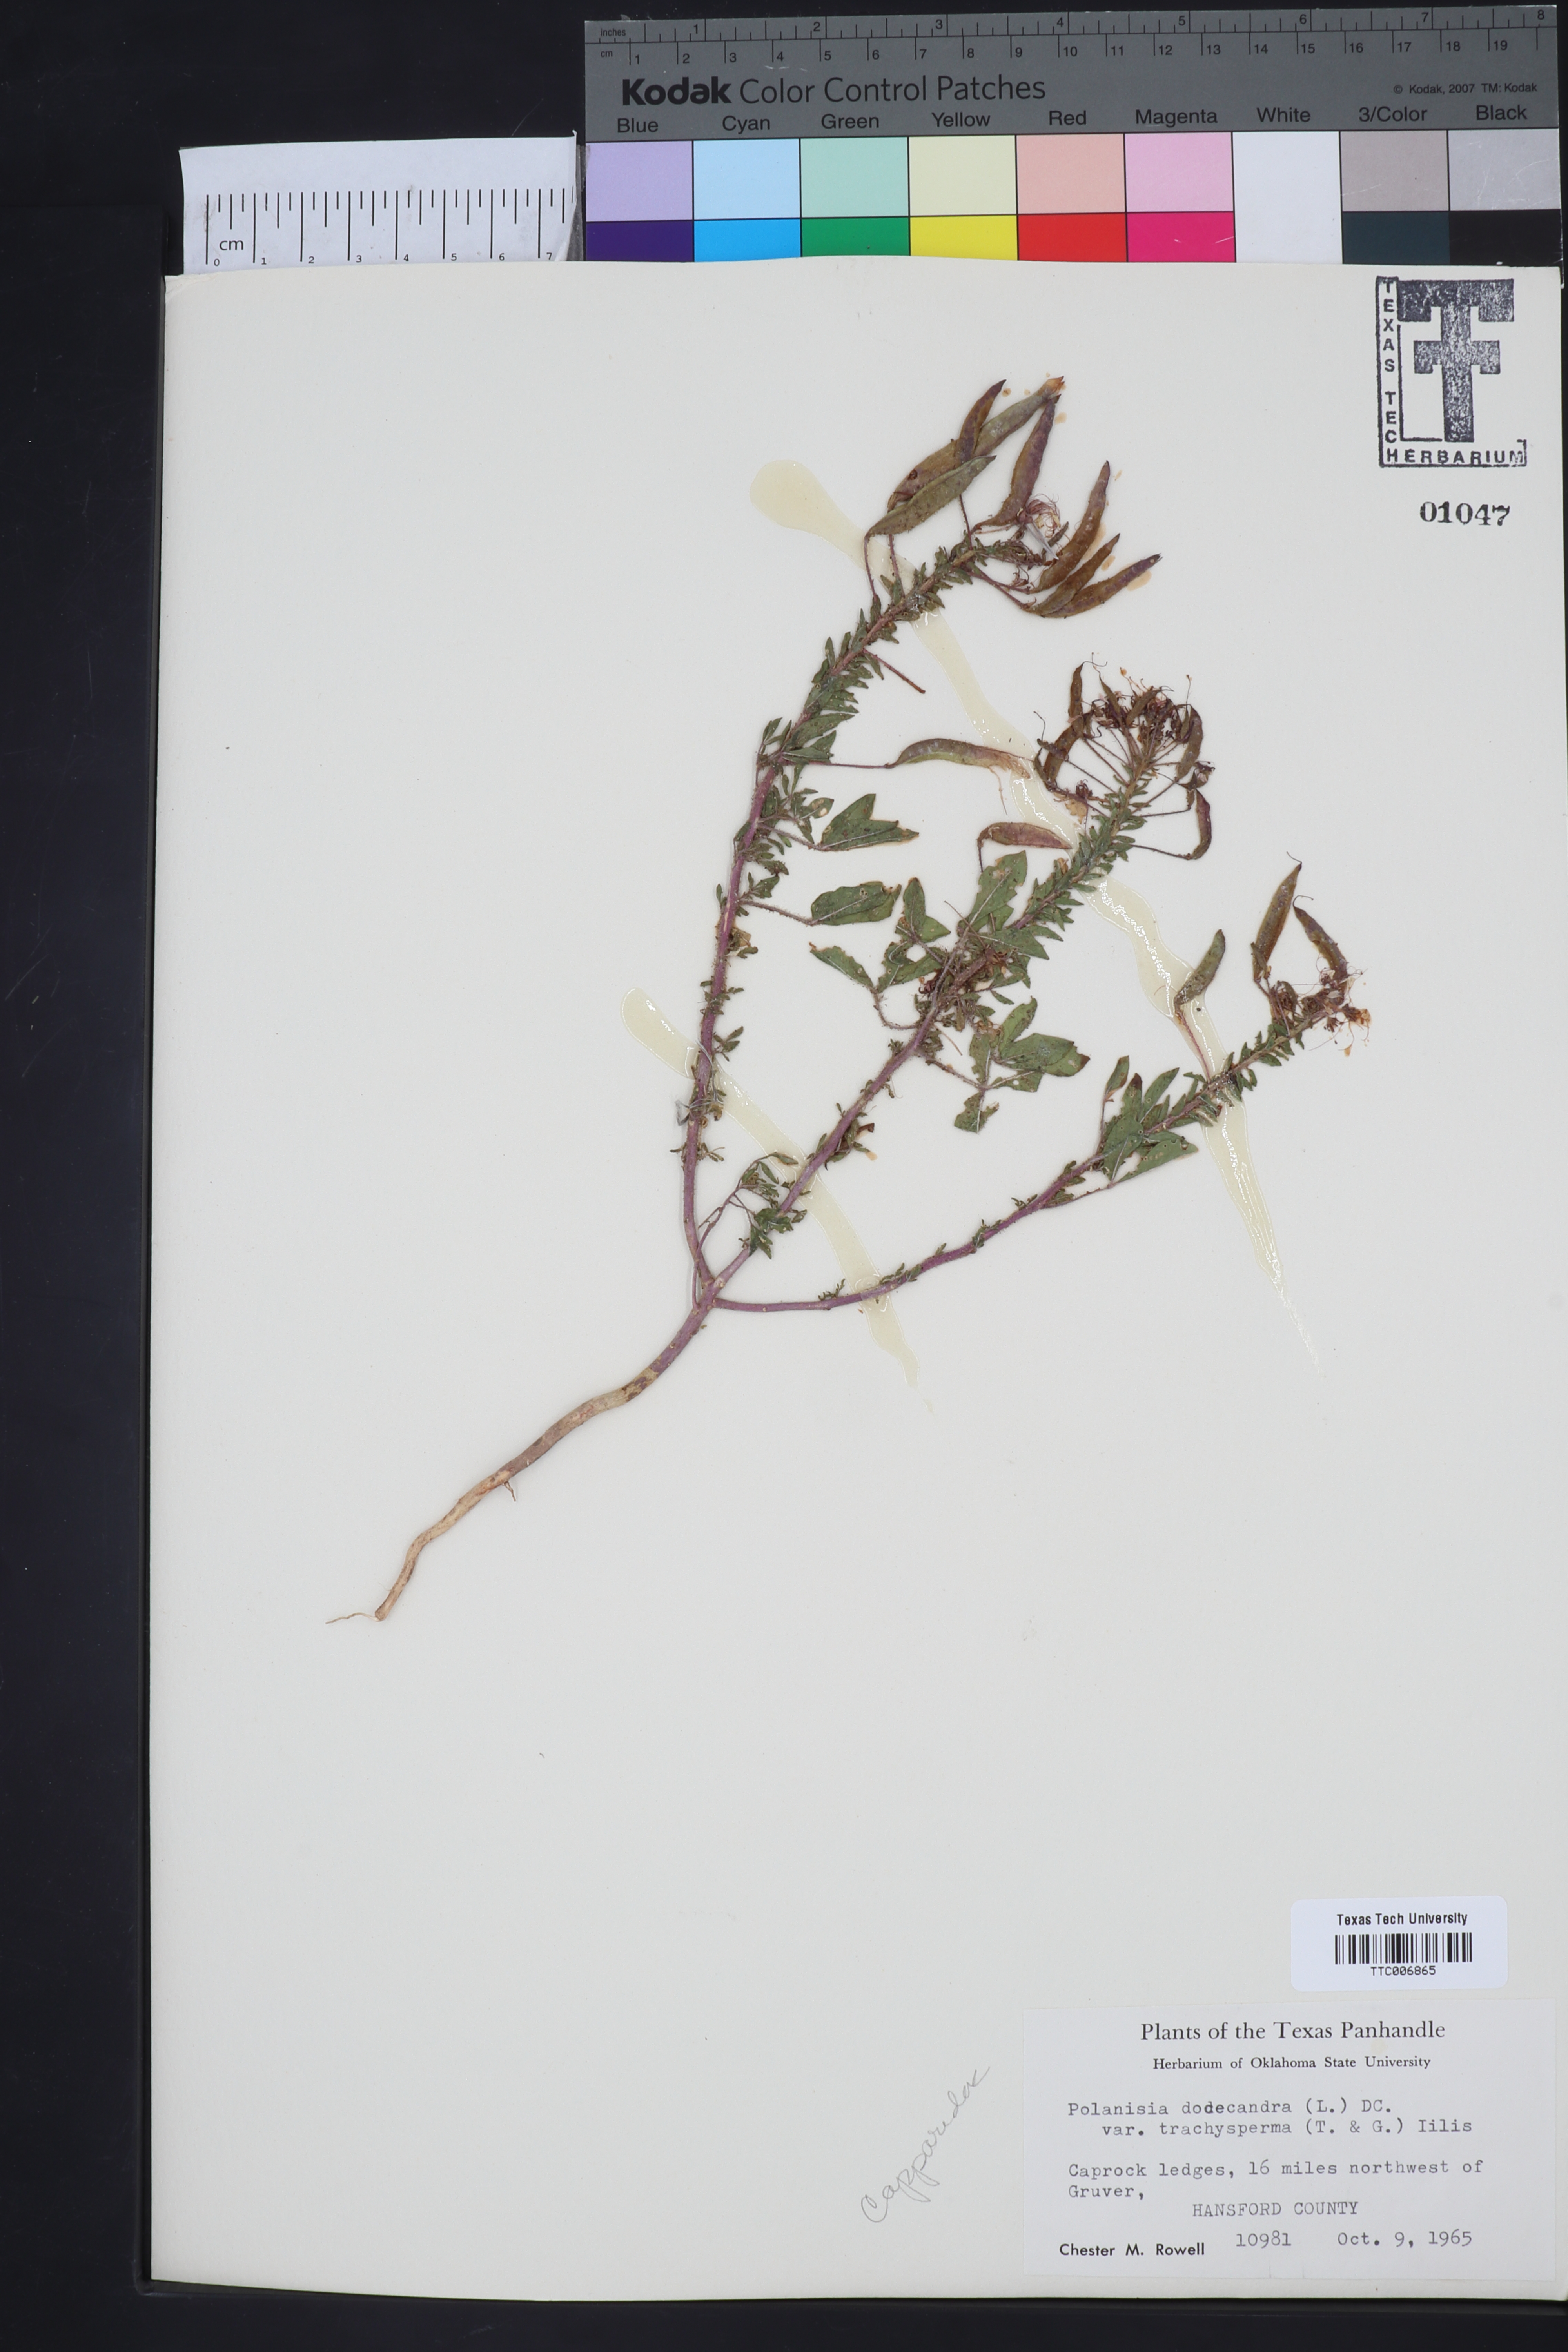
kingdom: Plantae
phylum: Tracheophyta
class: Magnoliopsida
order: Brassicales
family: Cleomaceae
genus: Polanisia
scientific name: Polanisia trachysperma
